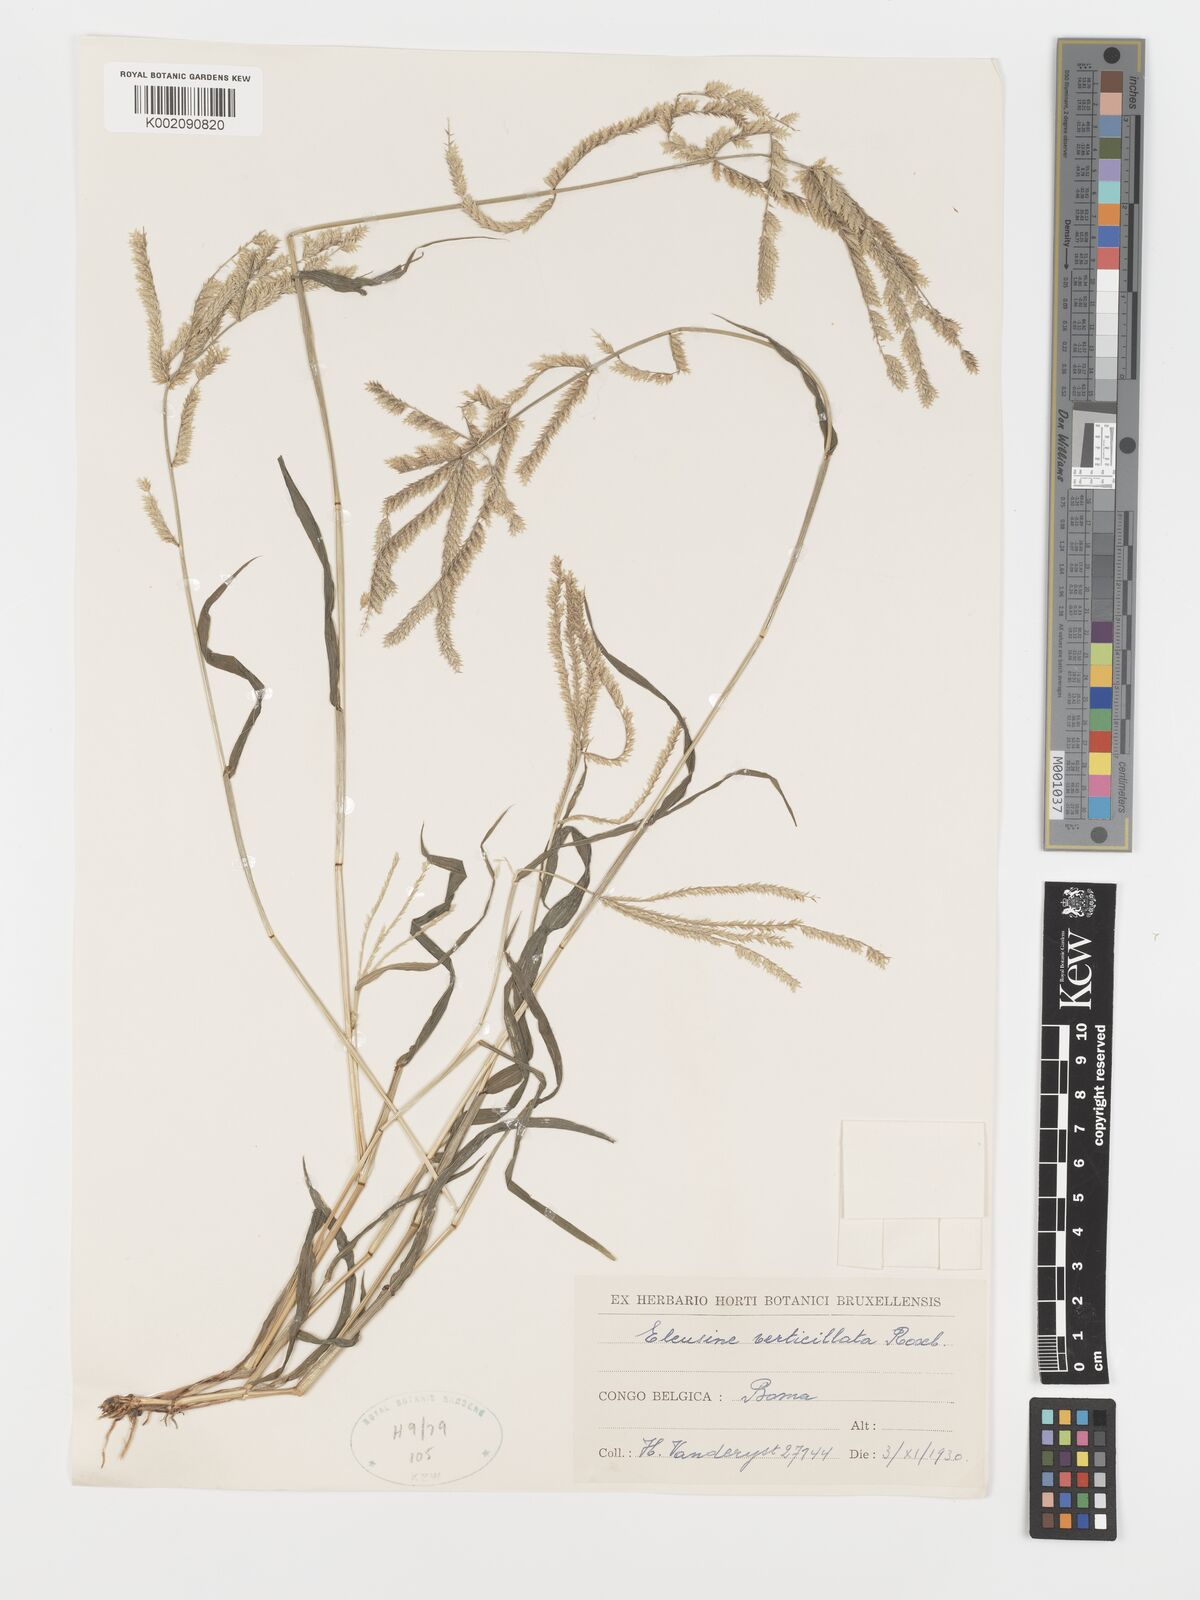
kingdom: Plantae
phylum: Tracheophyta
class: Liliopsida
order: Poales
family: Poaceae
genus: Acrachne
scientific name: Acrachne racemosa
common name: Goosegrass
